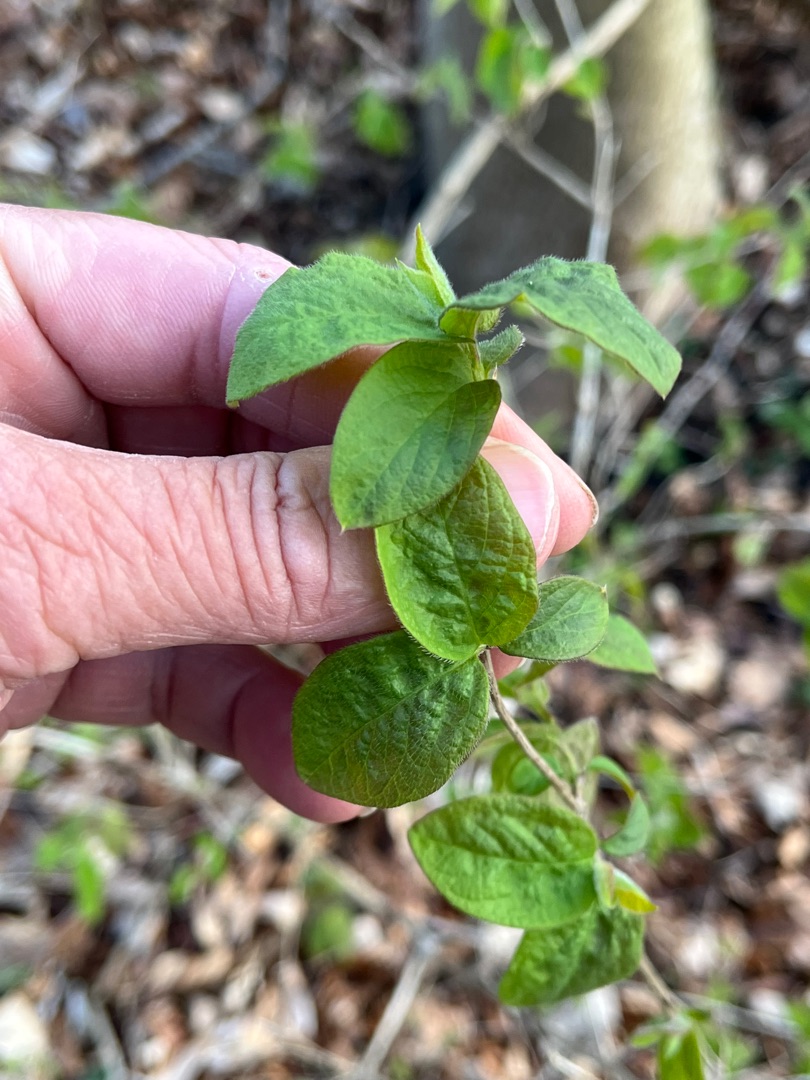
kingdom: Plantae
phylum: Tracheophyta
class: Magnoliopsida
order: Dipsacales
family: Caprifoliaceae
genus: Lonicera
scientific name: Lonicera xylosteum
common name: Dunet gedeblad
